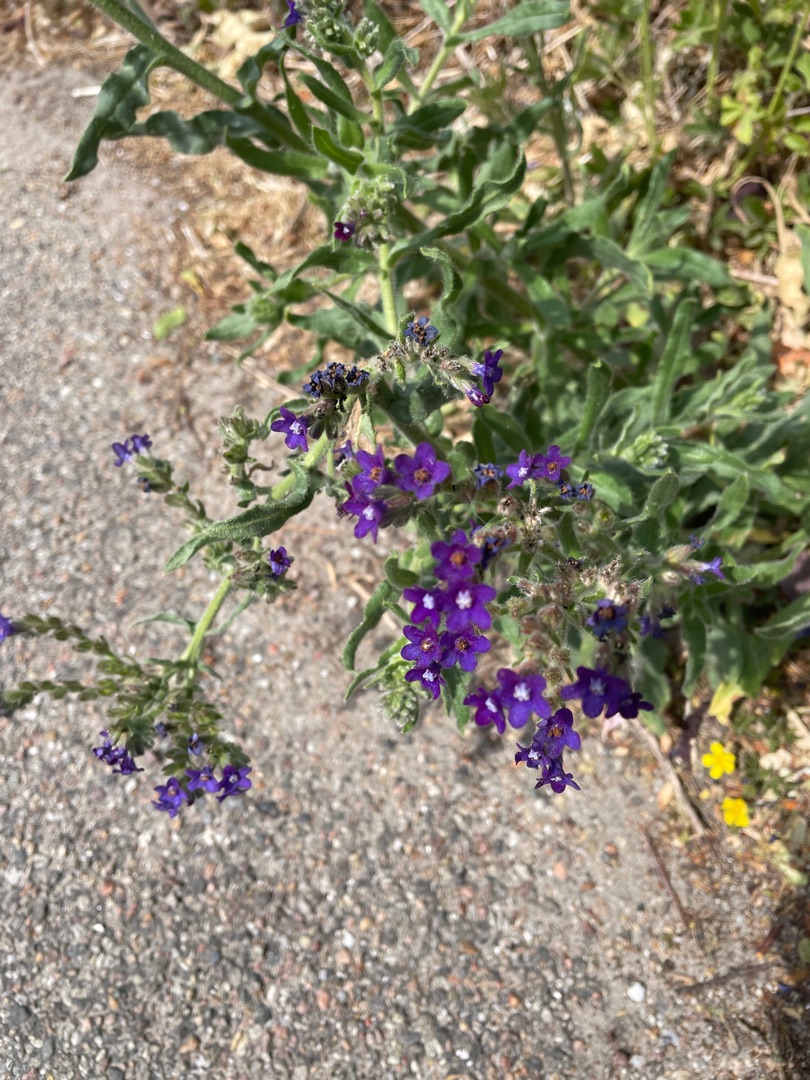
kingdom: Plantae
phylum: Tracheophyta
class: Magnoliopsida
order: Boraginales
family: Boraginaceae
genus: Anchusa
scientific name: Anchusa officinalis
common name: Læge-oksetunge
